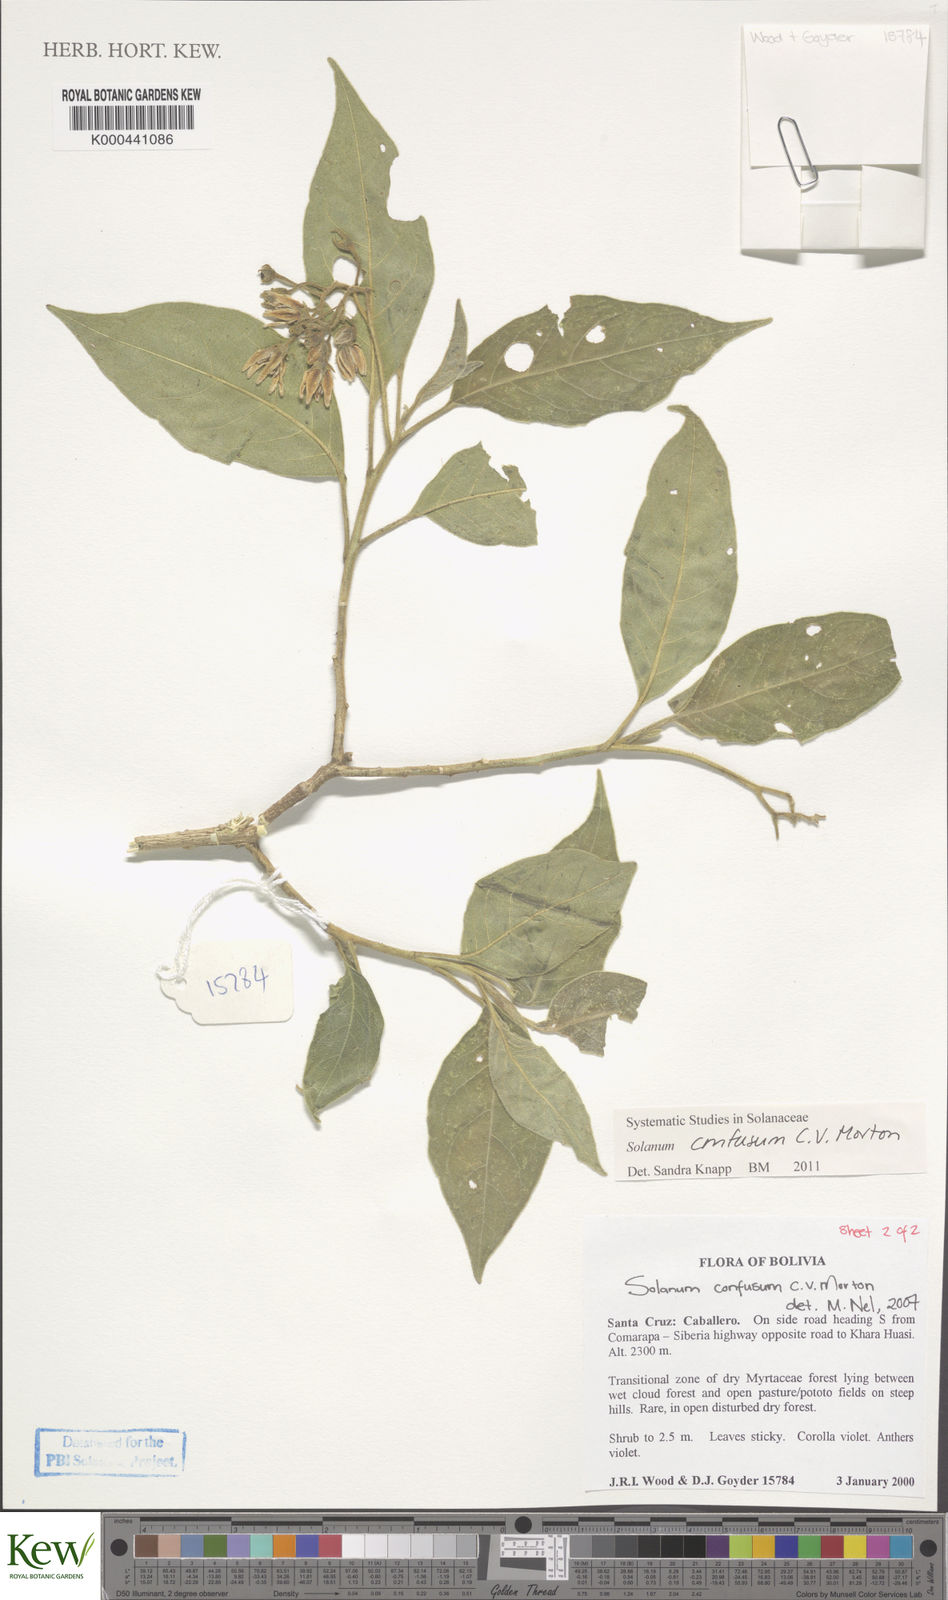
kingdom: Plantae
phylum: Tracheophyta
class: Magnoliopsida
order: Solanales
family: Solanaceae
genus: Solanum
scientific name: Solanum confusum
